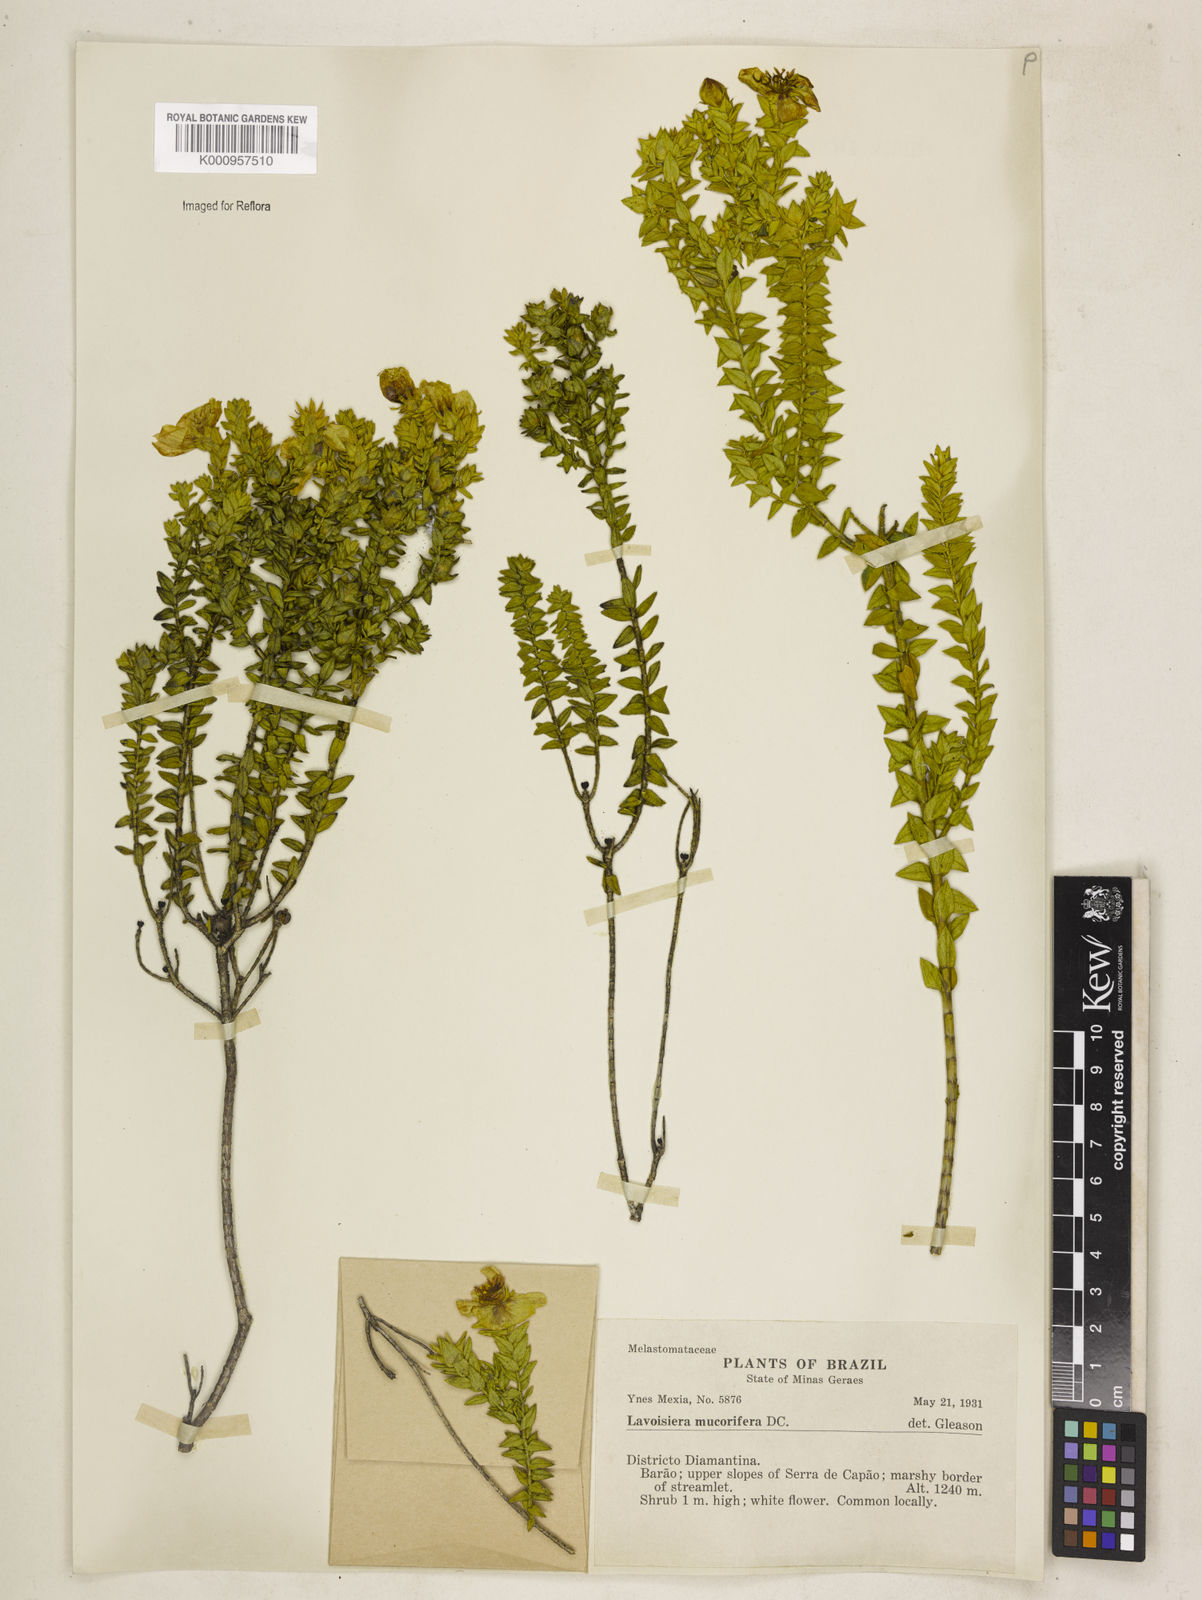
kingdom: Plantae
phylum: Tracheophyta
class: Magnoliopsida
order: Myrtales
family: Melastomataceae
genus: Microlicia
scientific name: Microlicia mucorifera
